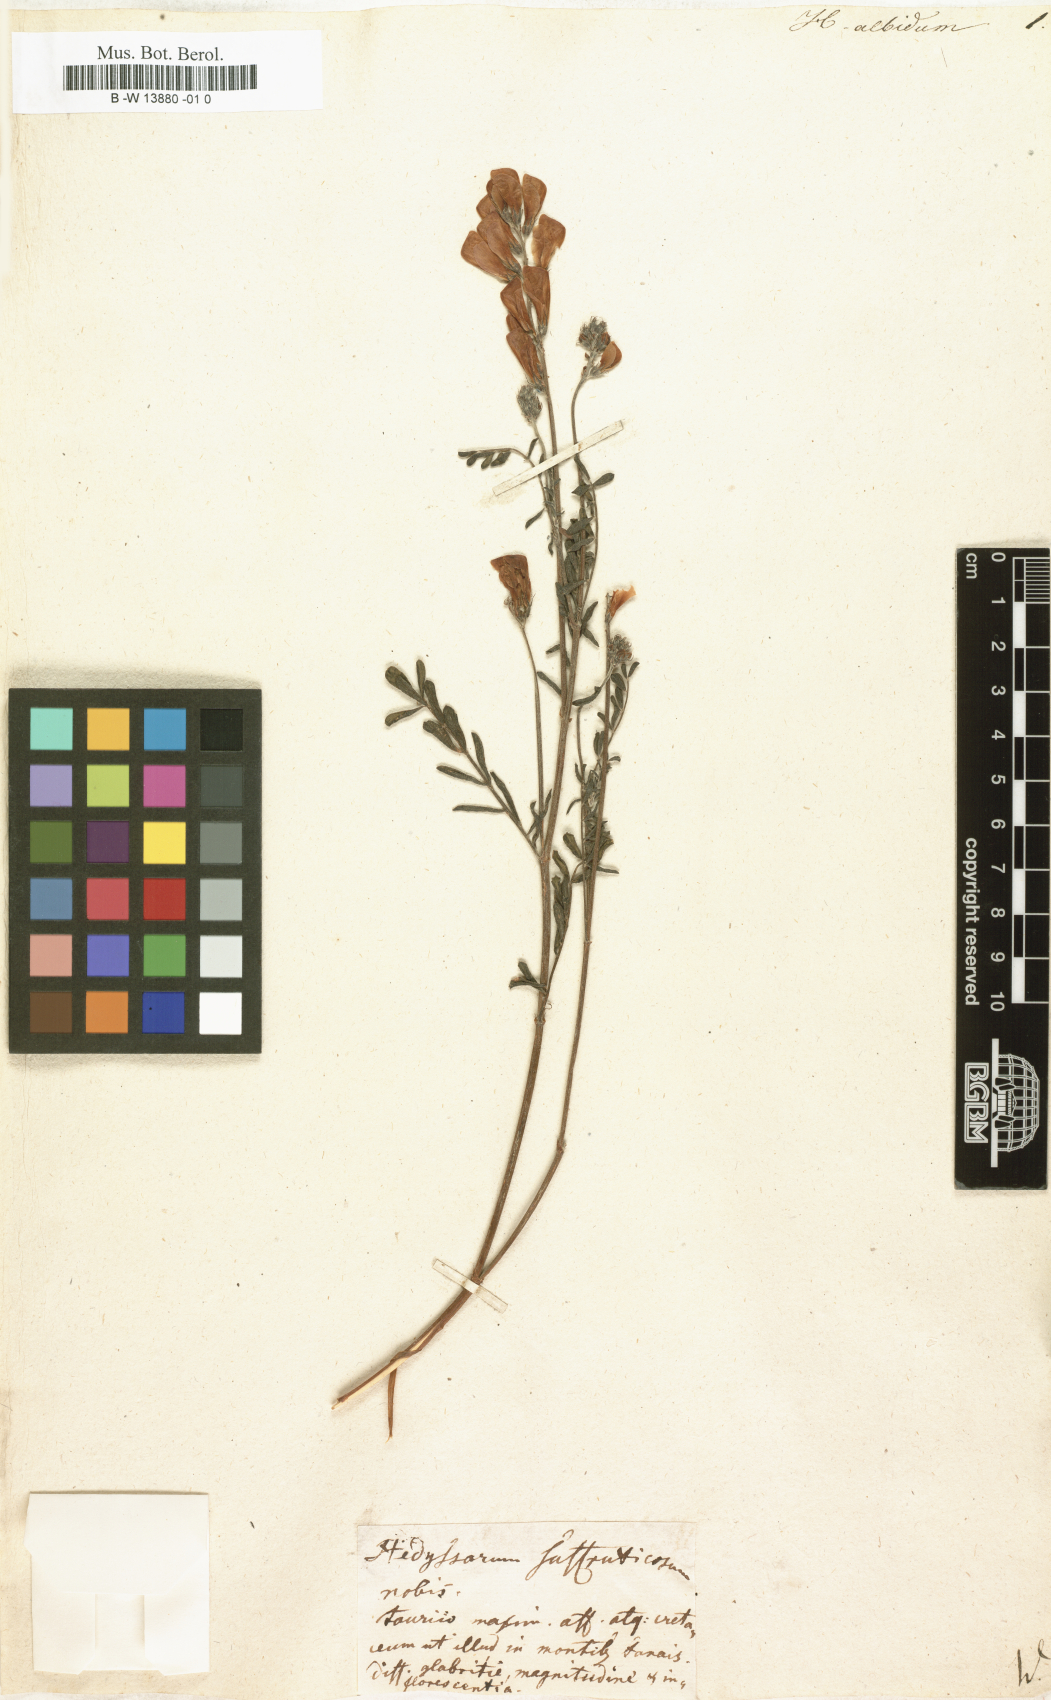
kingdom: Plantae
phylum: Tracheophyta
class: Magnoliopsida
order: Fabales
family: Fabaceae
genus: Hedysarum
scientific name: Hedysarum algidum
